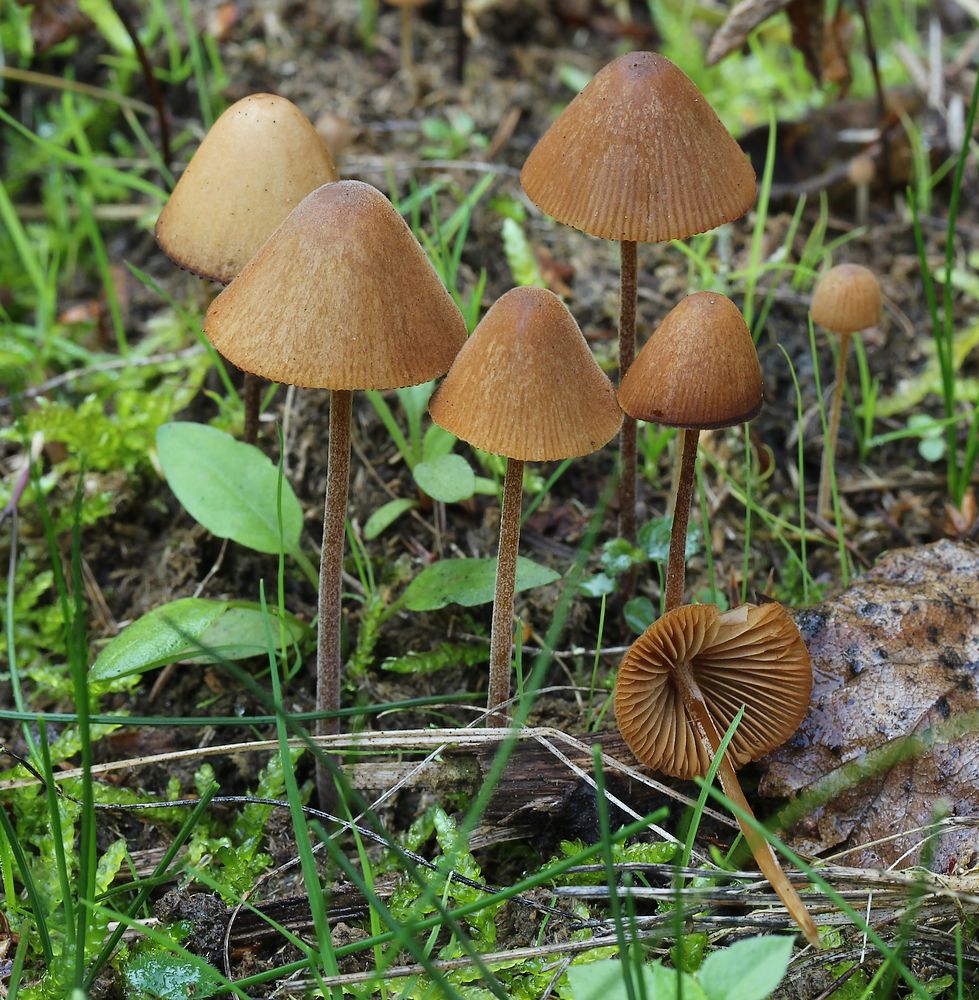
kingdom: Fungi
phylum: Basidiomycota
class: Agaricomycetes
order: Agaricales
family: Bolbitiaceae
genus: Conocybe
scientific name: Conocybe
